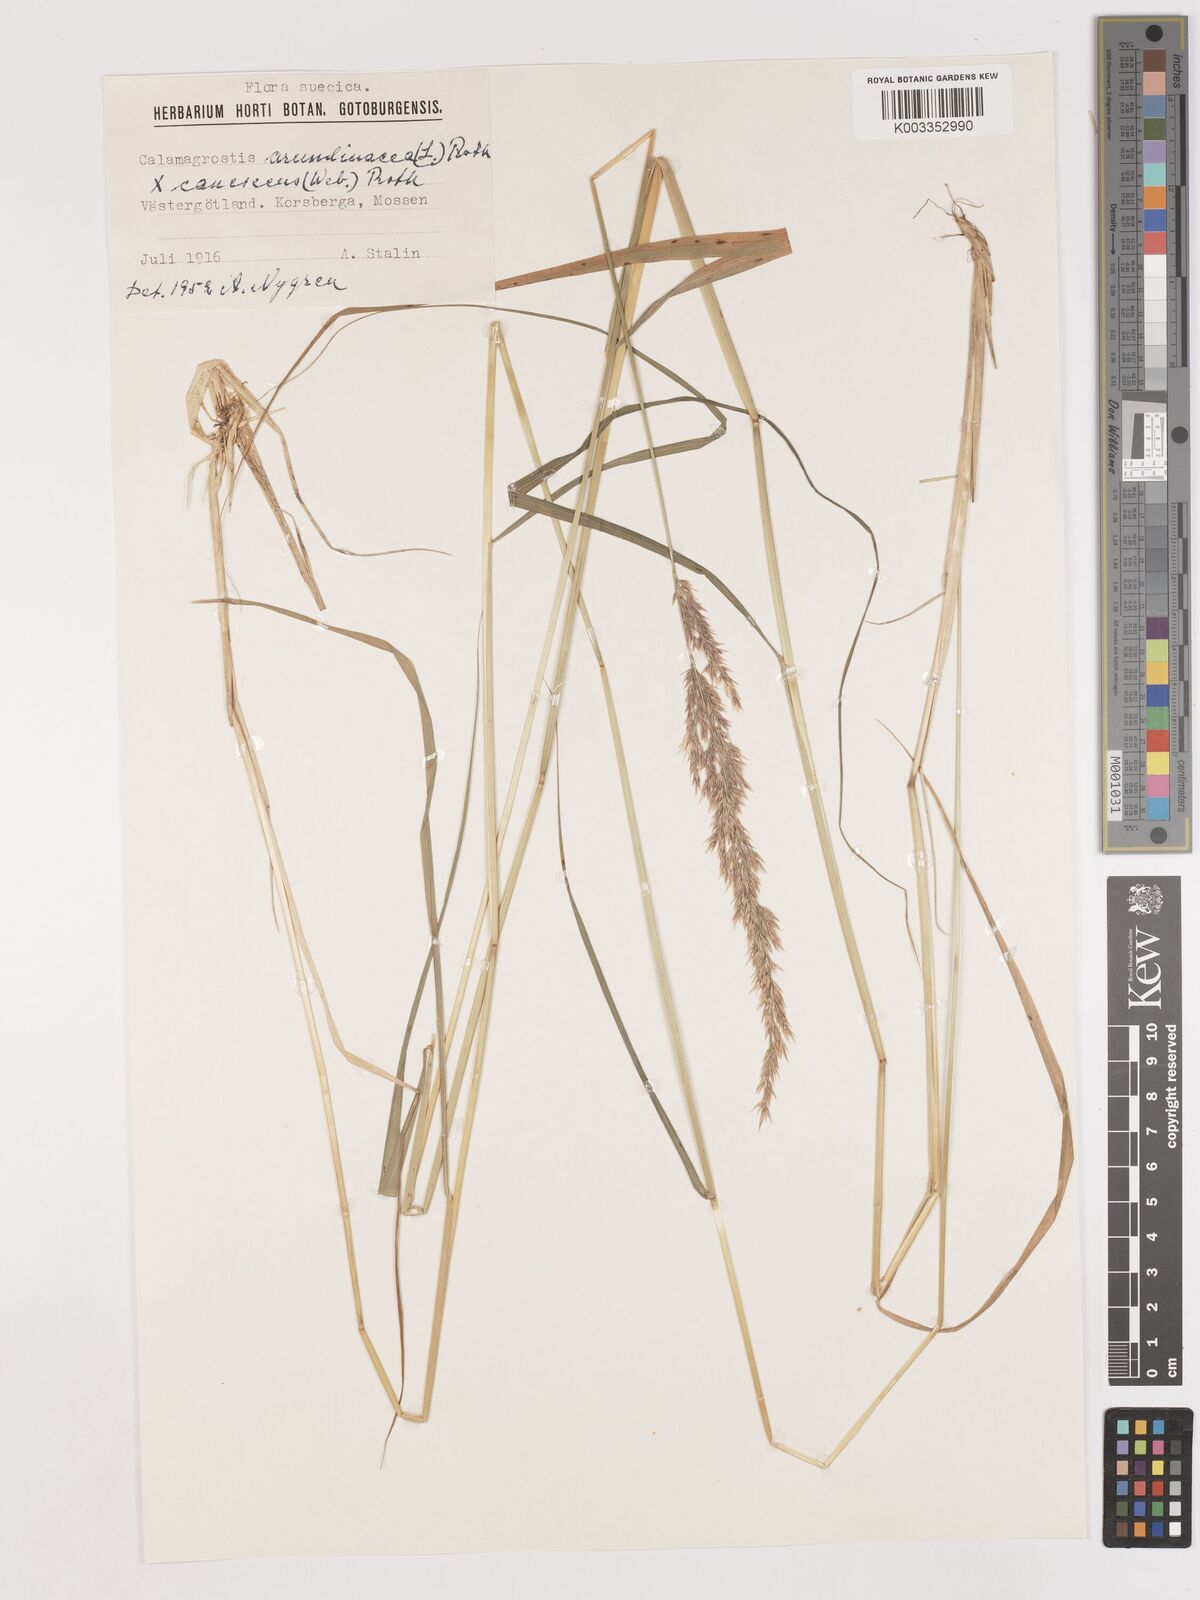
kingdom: Plantae
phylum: Tracheophyta
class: Liliopsida
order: Poales
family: Poaceae
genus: Calamagrostis
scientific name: Calamagrostis canescens
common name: Purple small-reed
